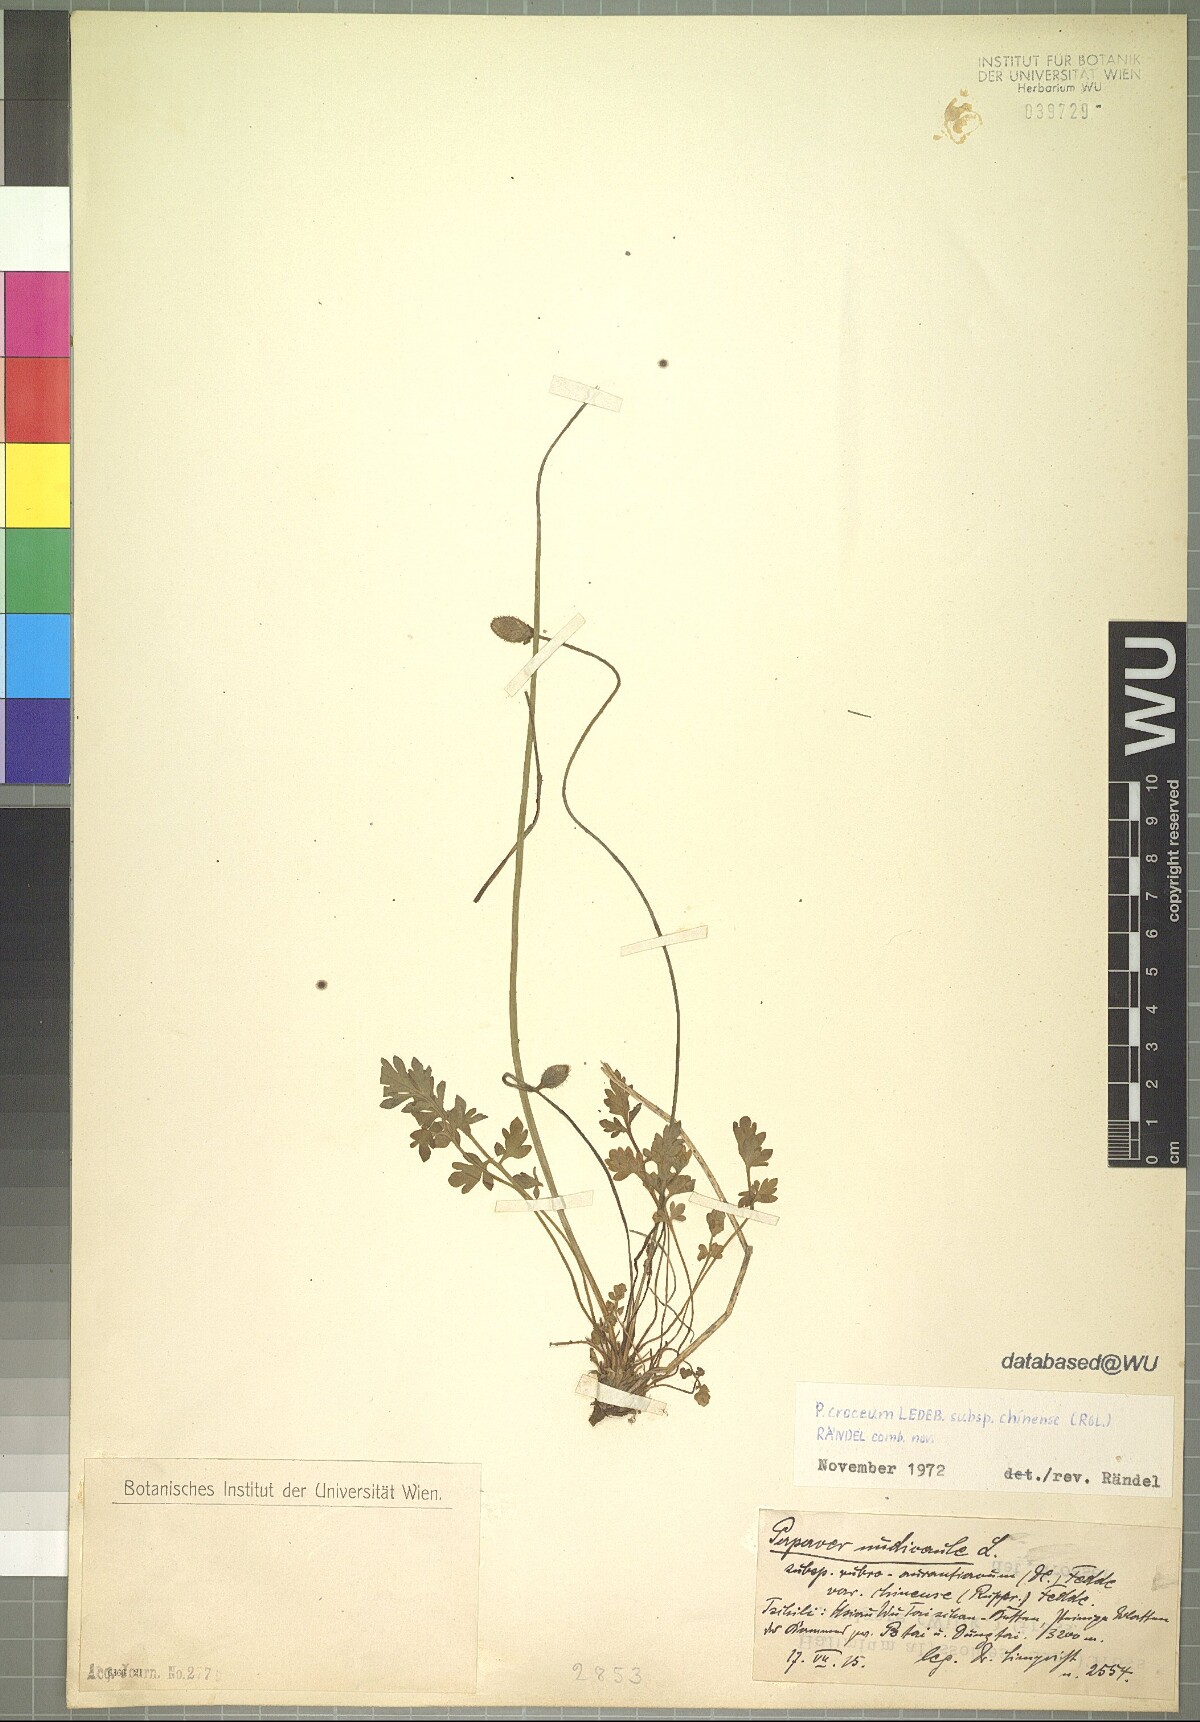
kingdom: Plantae
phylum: Tracheophyta
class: Magnoliopsida
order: Ranunculales
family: Papaveraceae
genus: Papaver
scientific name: Papaver nudicaule
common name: Arctic poppy
